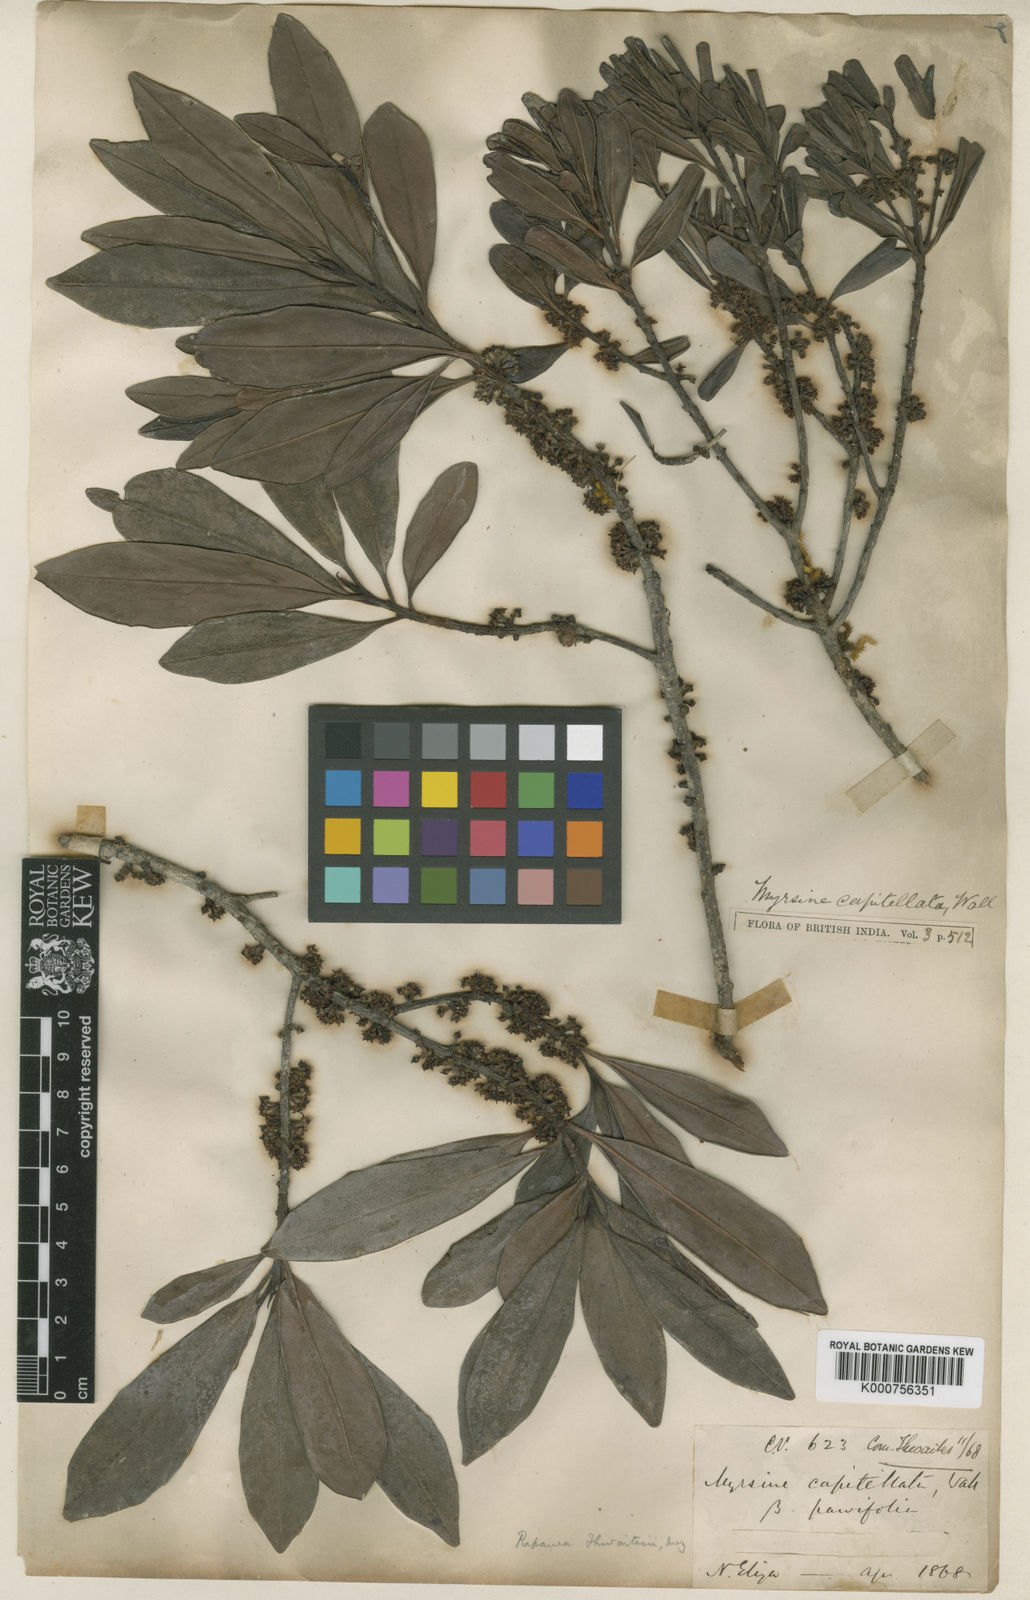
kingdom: Plantae
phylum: Tracheophyta
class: Magnoliopsida
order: Ericales
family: Primulaceae
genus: Myrsine
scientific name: Myrsine thwaitesii
